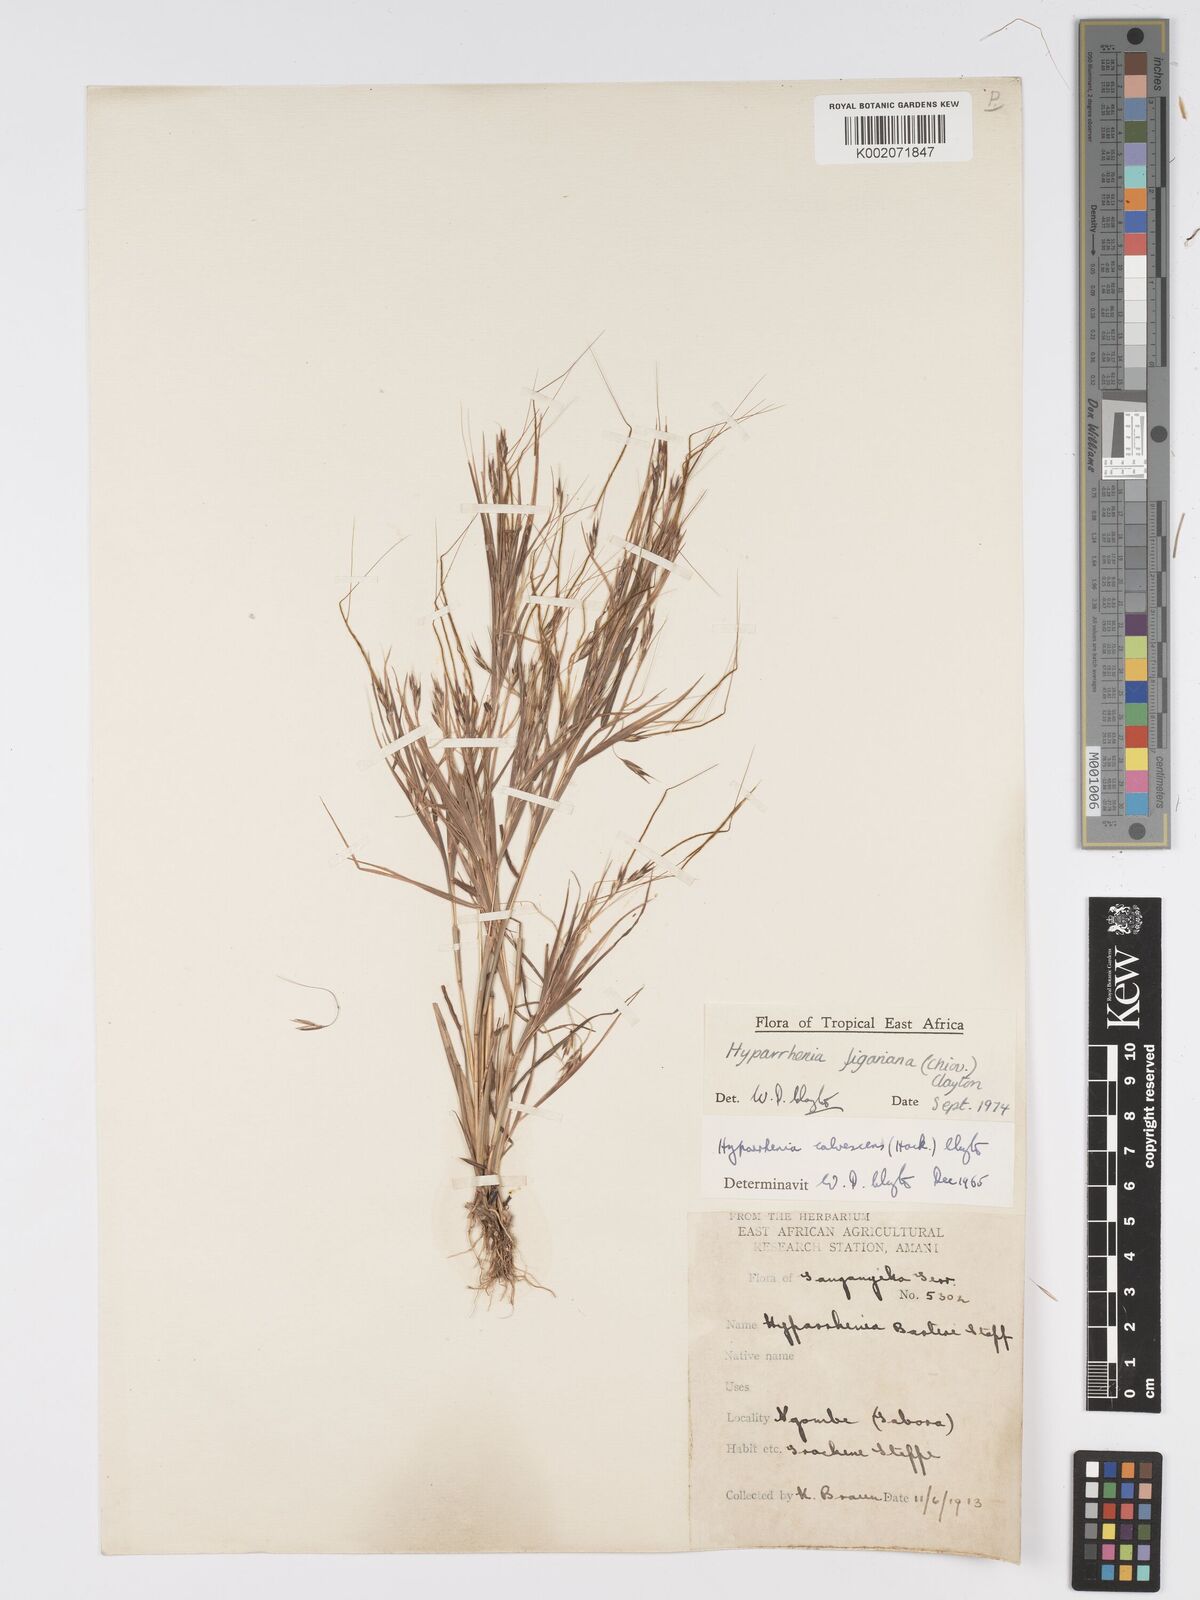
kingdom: Plantae
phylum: Tracheophyta
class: Liliopsida
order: Poales
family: Poaceae
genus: Hyparrhenia
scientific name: Hyparrhenia figariana
